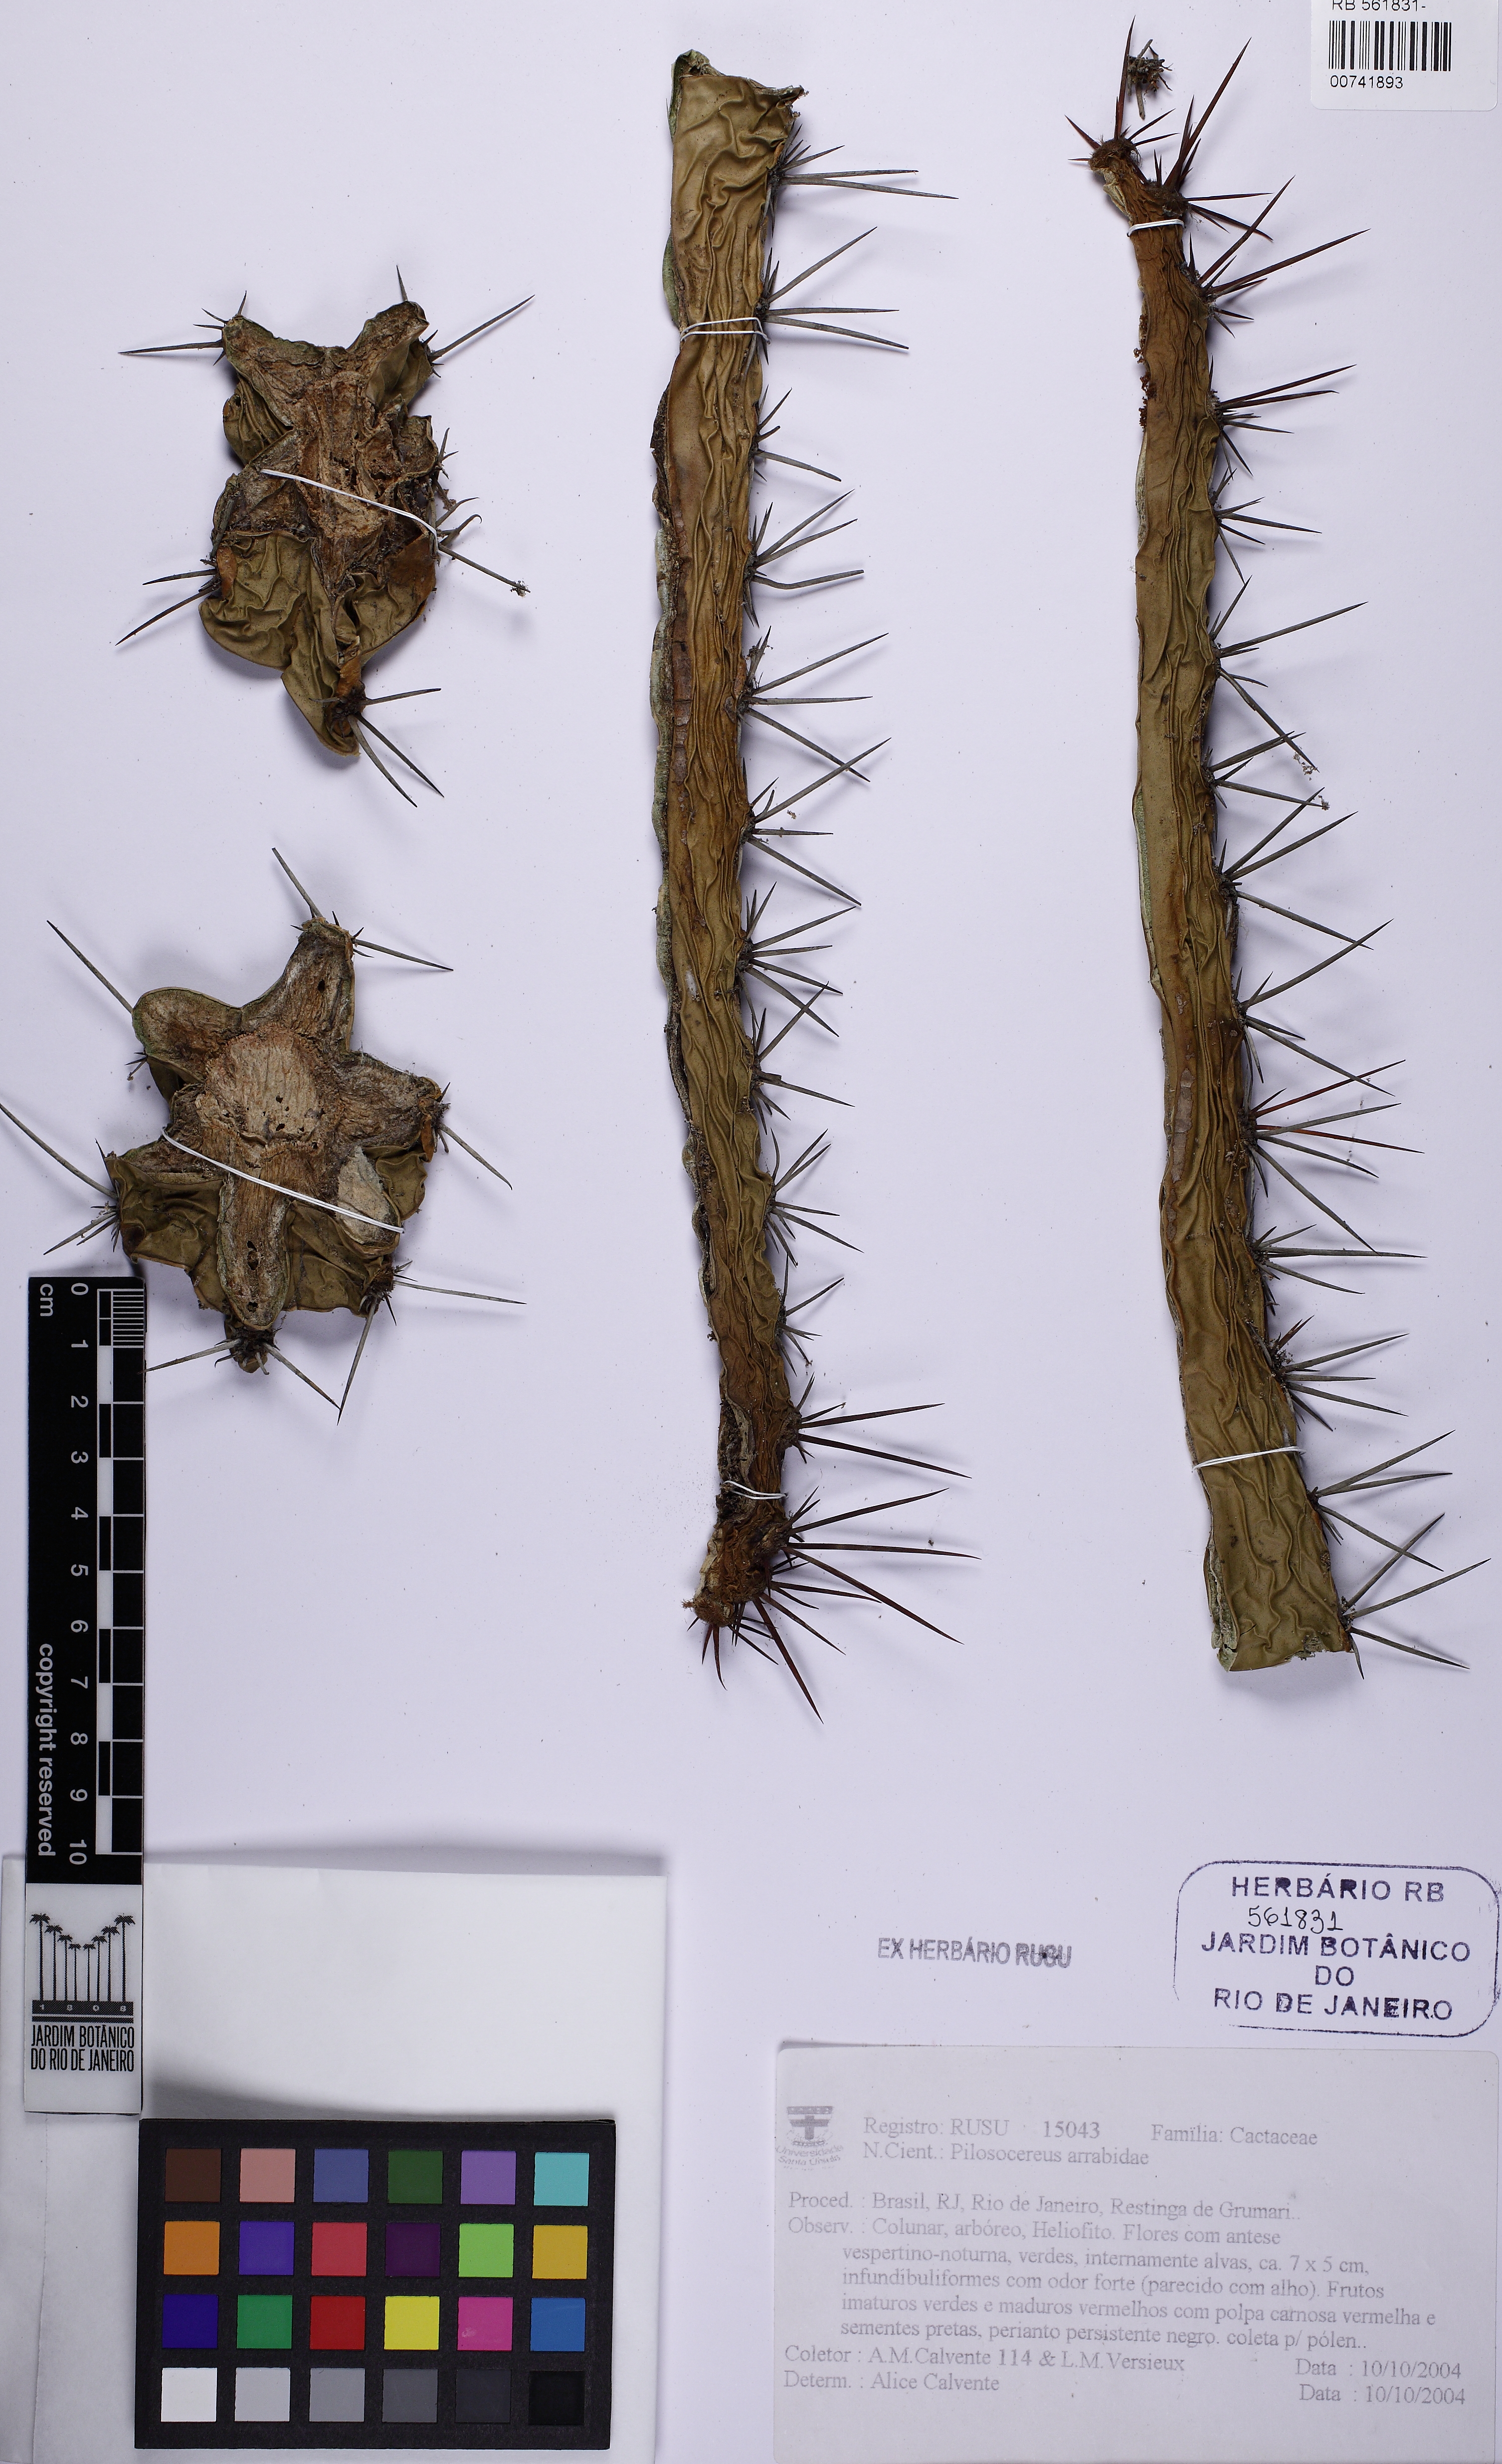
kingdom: Plantae
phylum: Tracheophyta
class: Magnoliopsida
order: Caryophyllales
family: Cactaceae
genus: Pilosocereus
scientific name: Pilosocereus arrabidae
